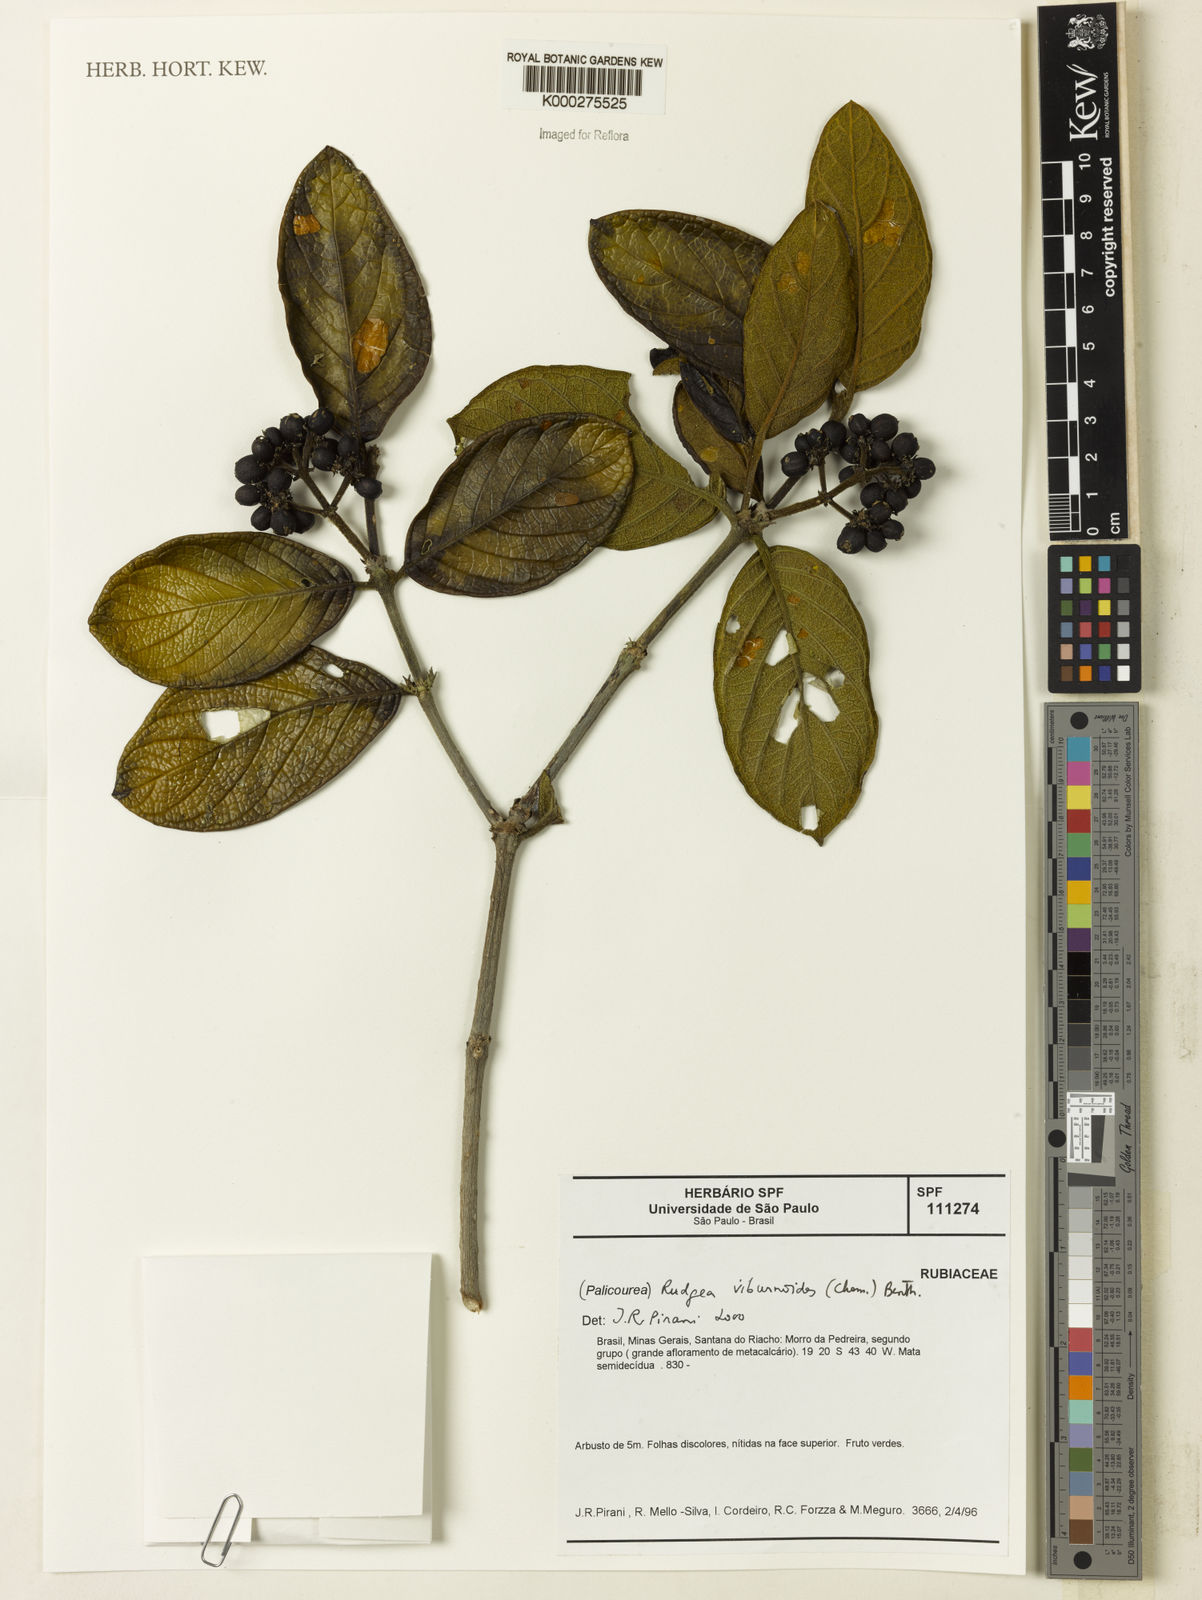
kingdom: Plantae
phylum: Tracheophyta
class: Magnoliopsida
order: Gentianales
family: Rubiaceae
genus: Rudgea
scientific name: Rudgea viburnoides
